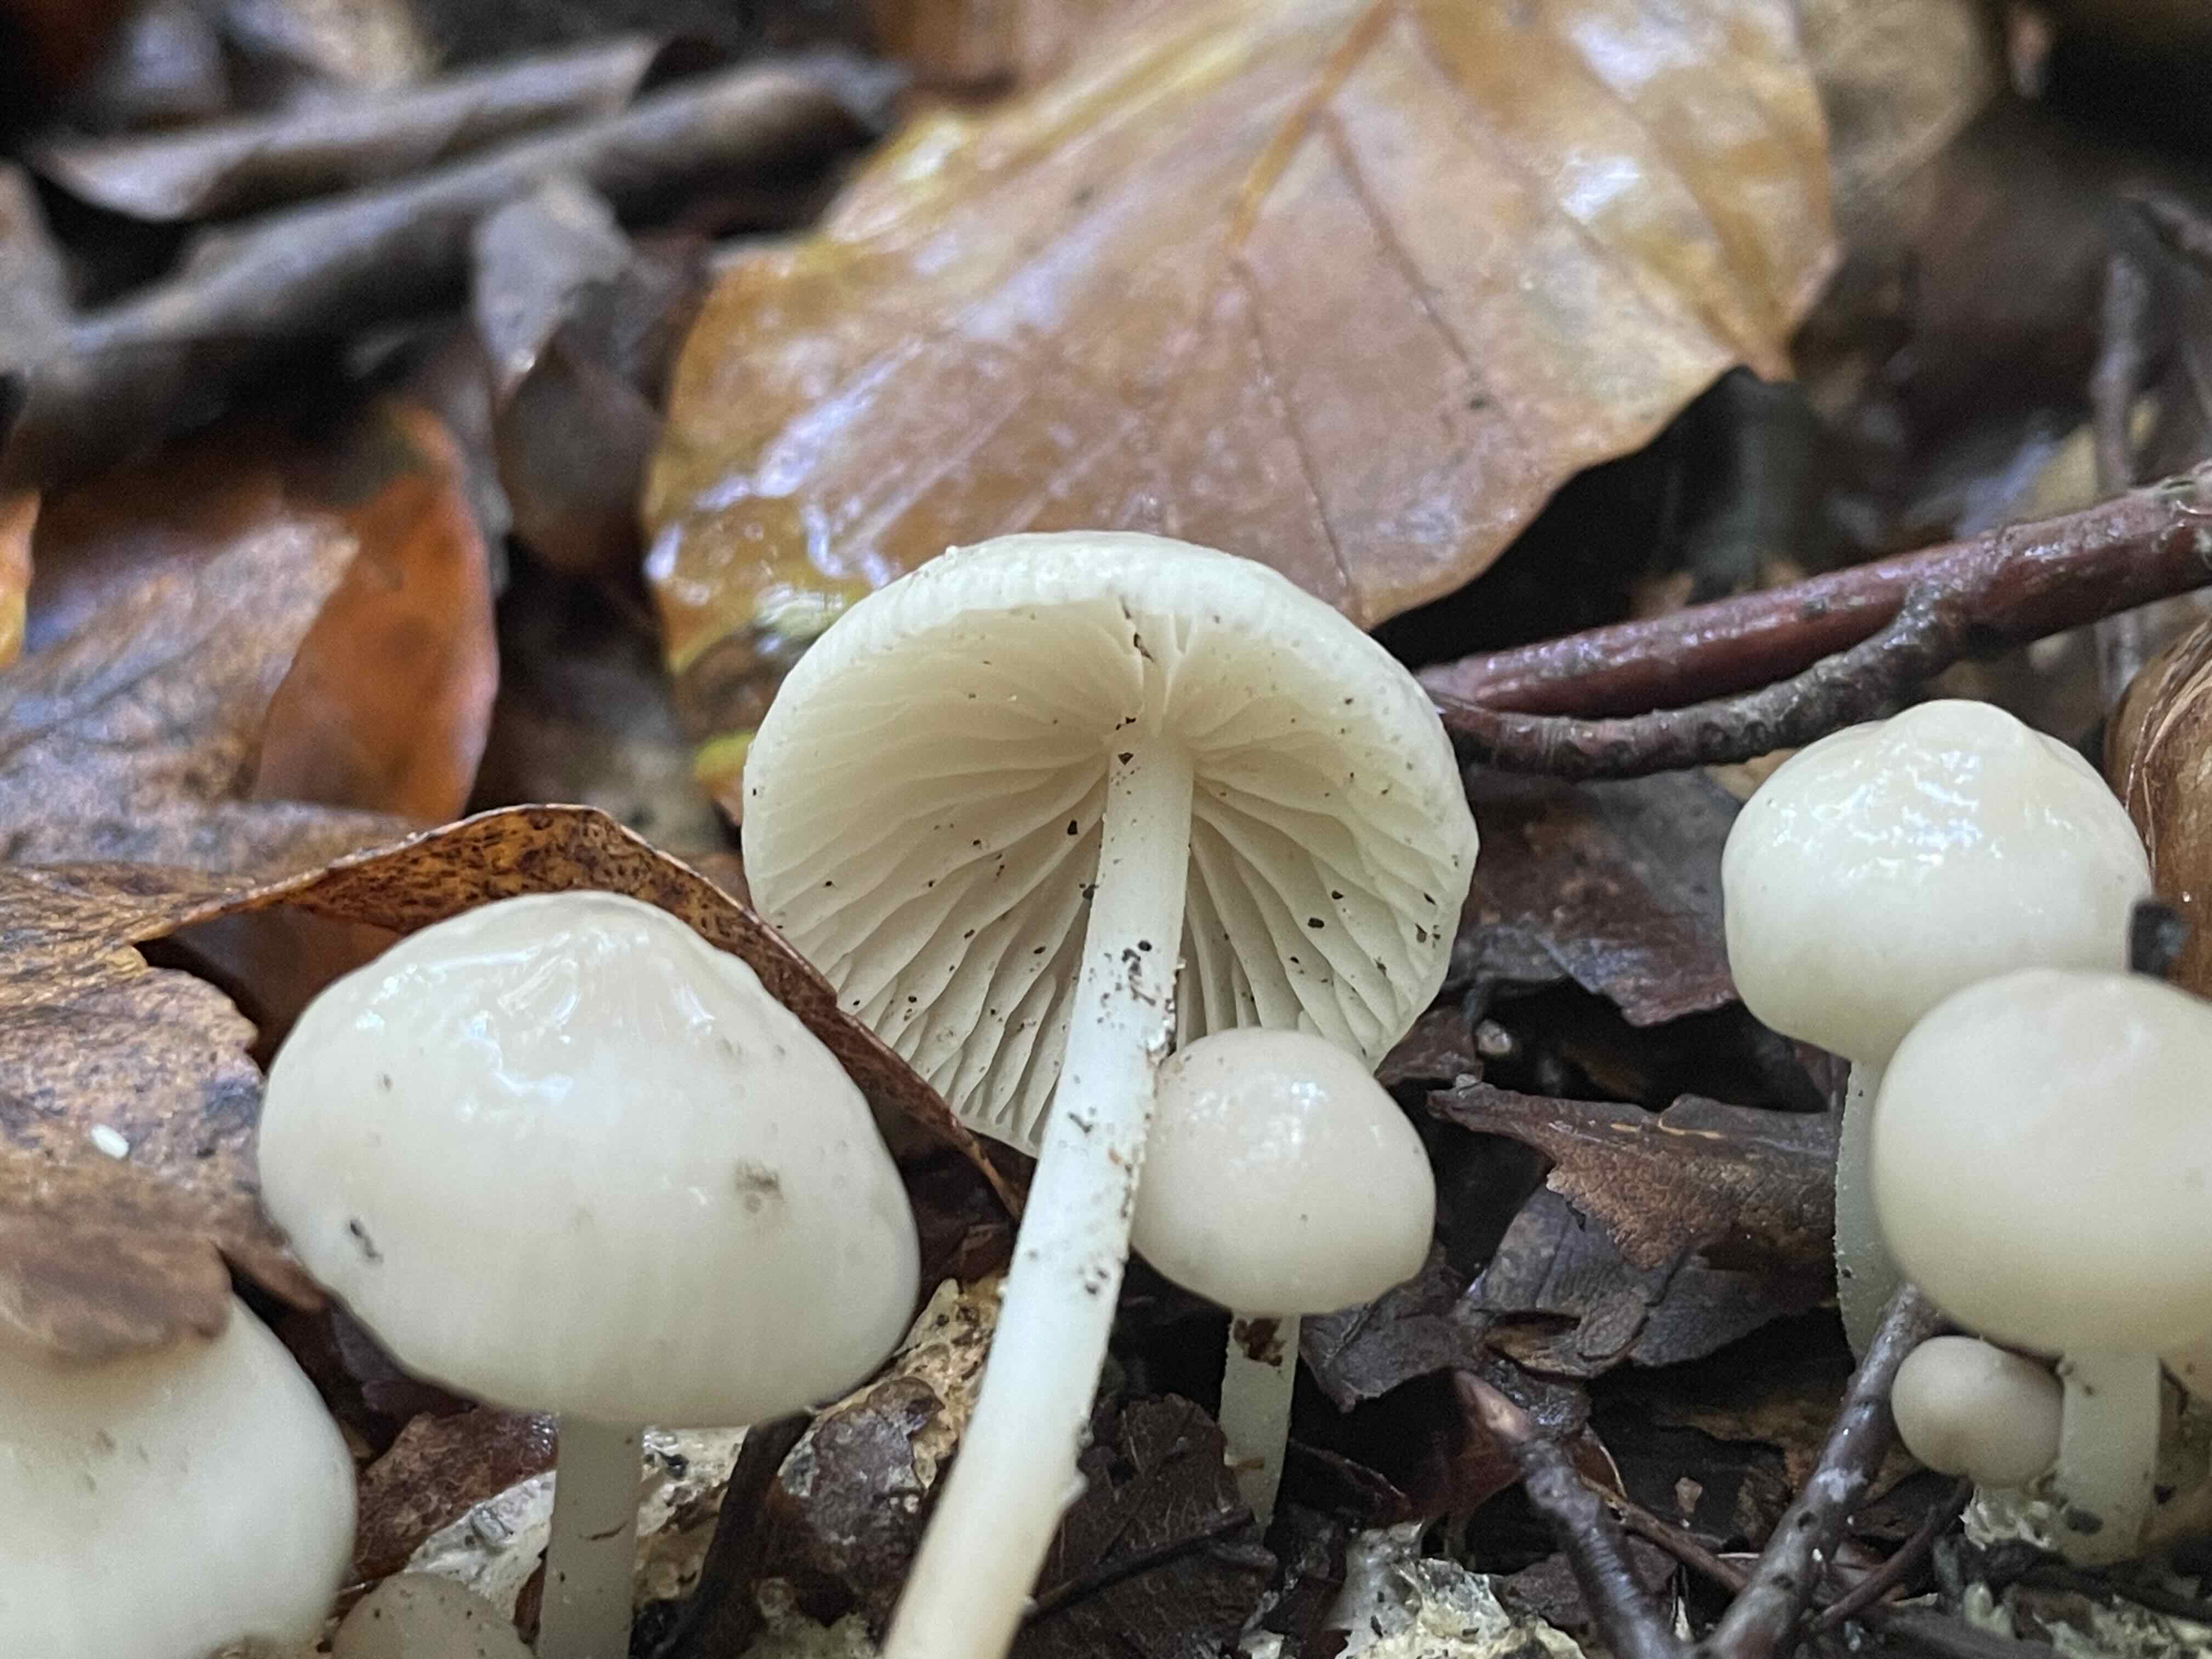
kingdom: Fungi
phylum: Basidiomycota
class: Agaricomycetes
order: Agaricales
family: Marasmiaceae
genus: Marasmius
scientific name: Marasmius wynneae
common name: hvælvet bruskhat
